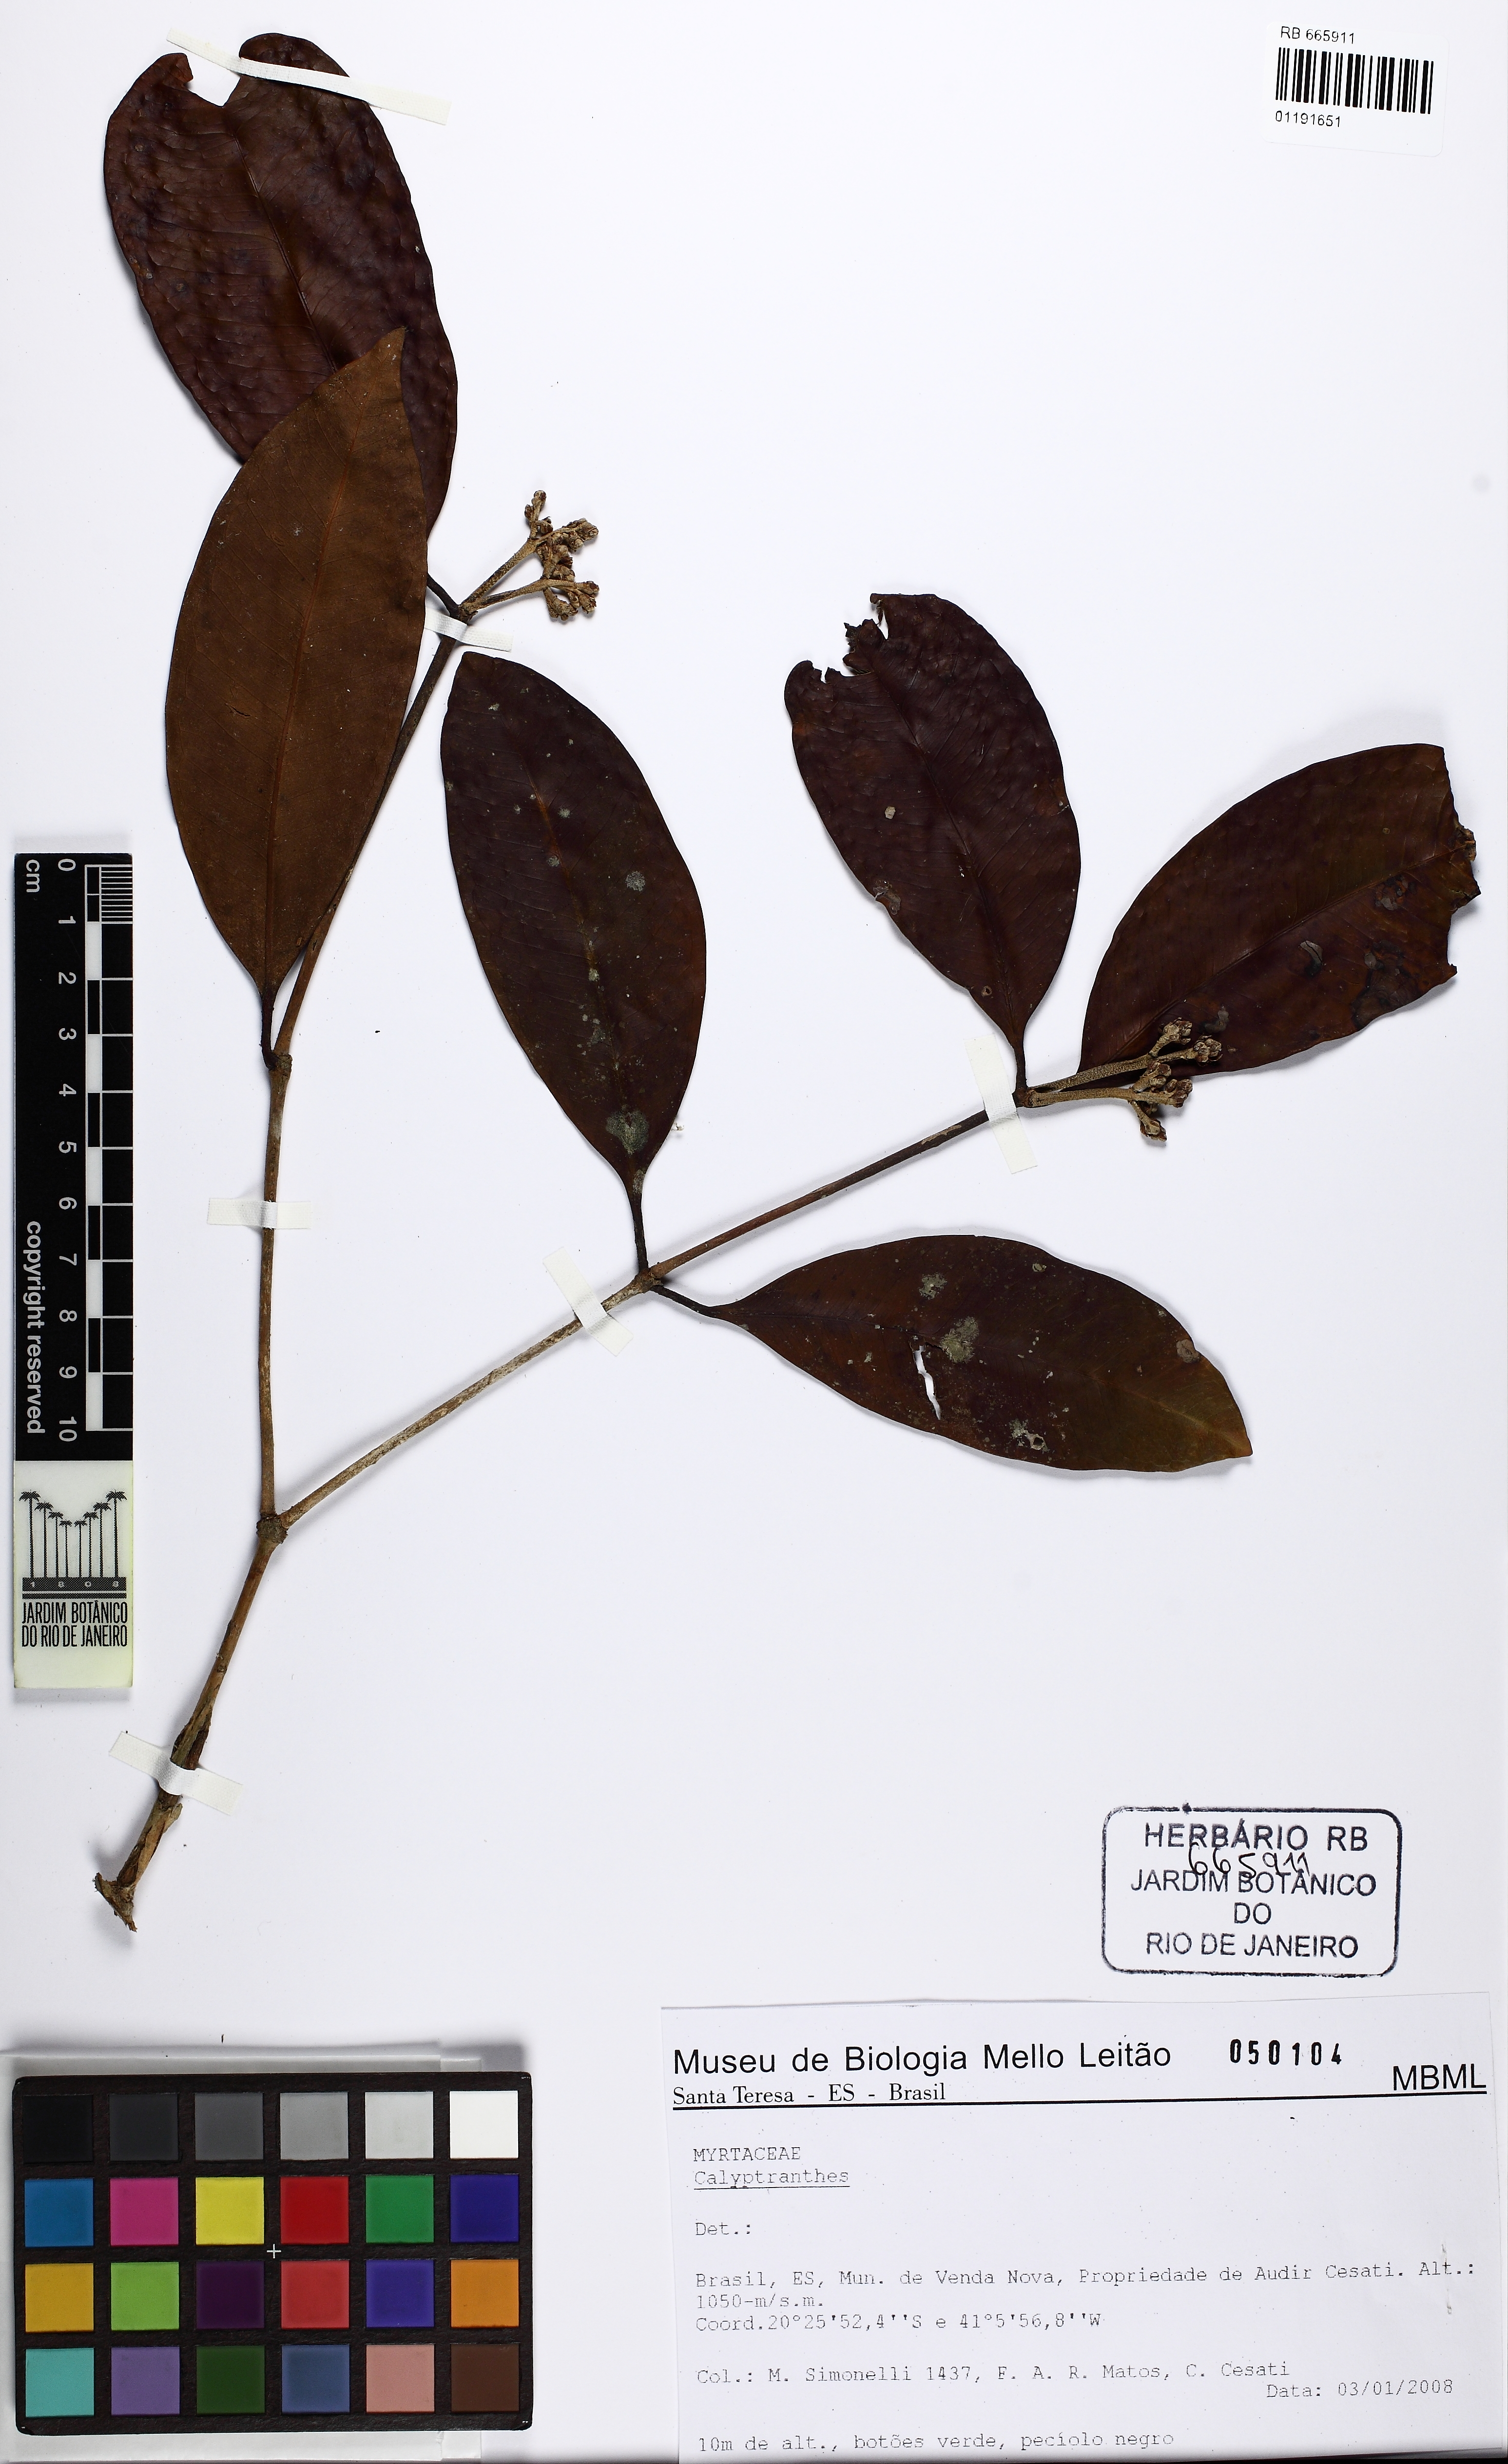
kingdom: Plantae
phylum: Tracheophyta
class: Magnoliopsida
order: Myrtales
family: Myrtaceae
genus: Calyptranthes
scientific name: Calyptranthes grandifolia
